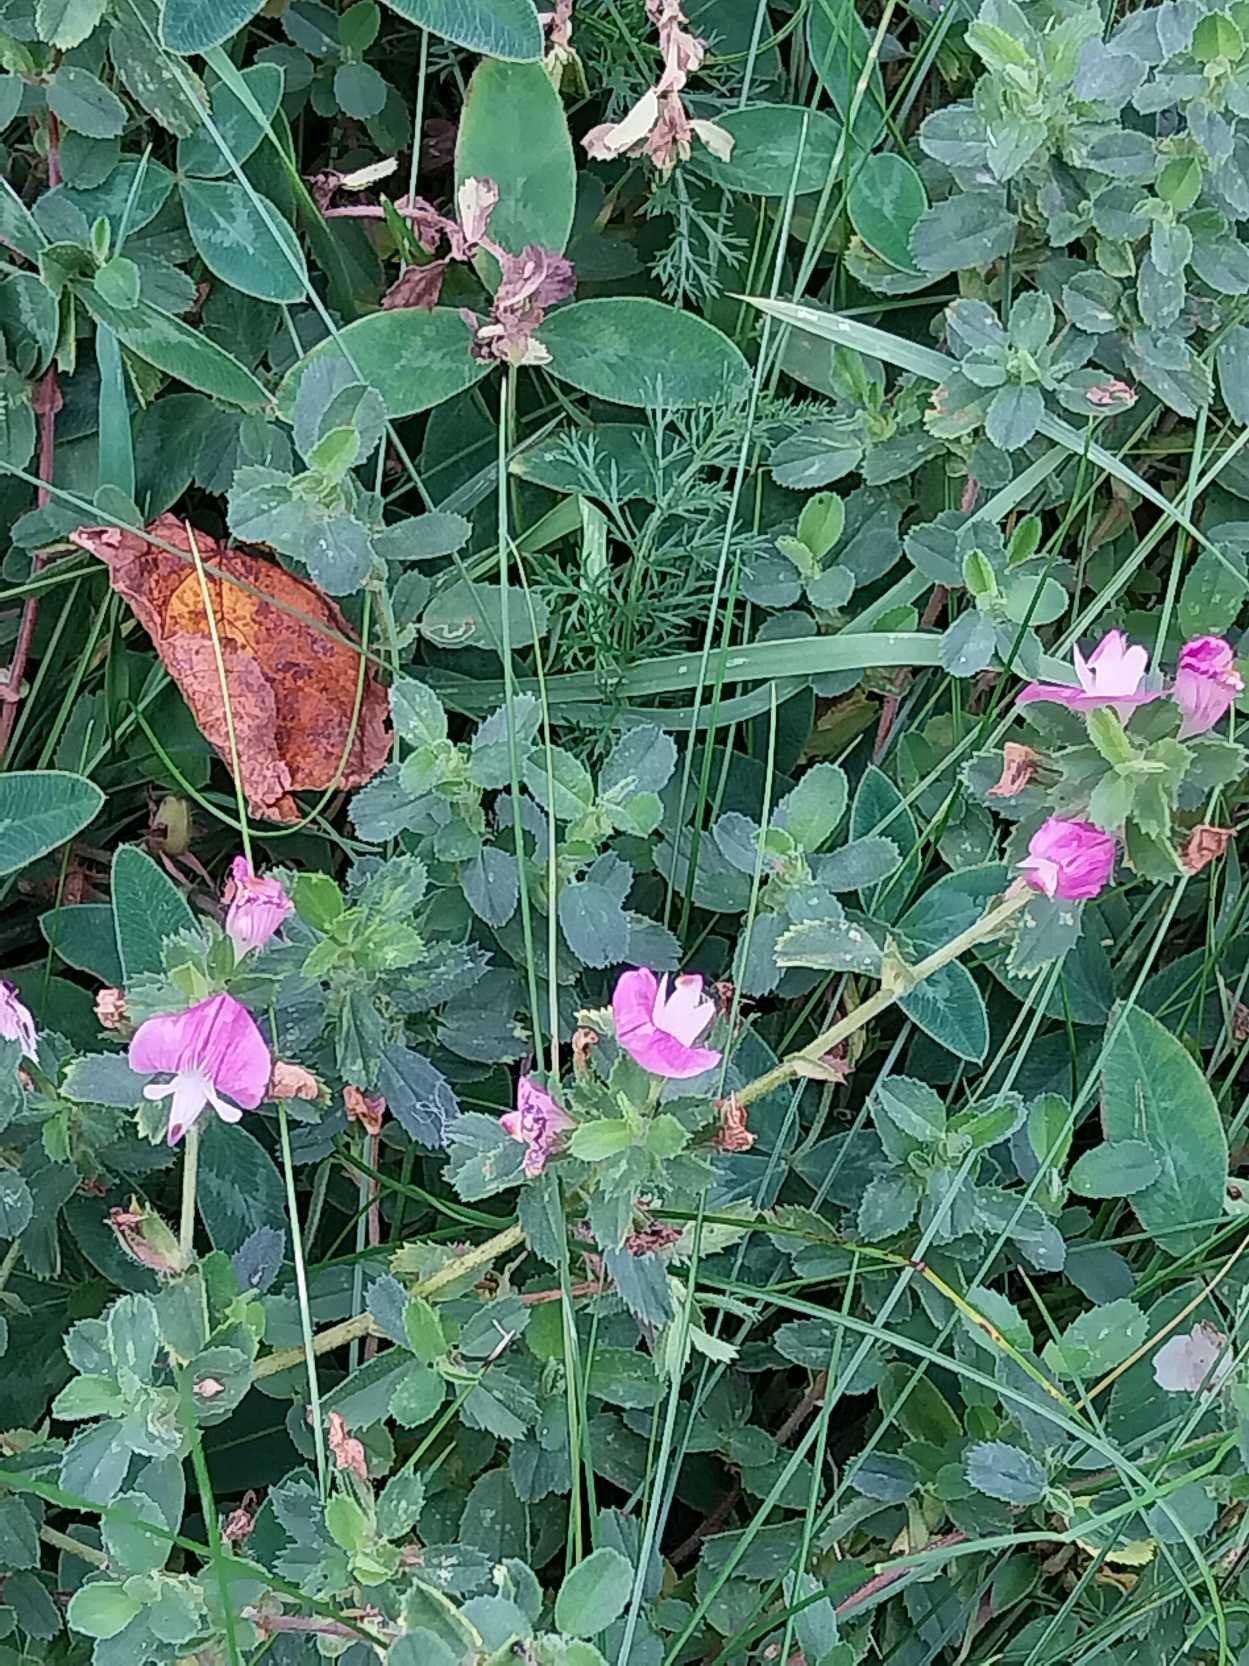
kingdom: Plantae
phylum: Tracheophyta
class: Magnoliopsida
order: Fabales
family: Fabaceae
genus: Ononis
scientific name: Ononis spinosa
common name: Mark-krageklo
